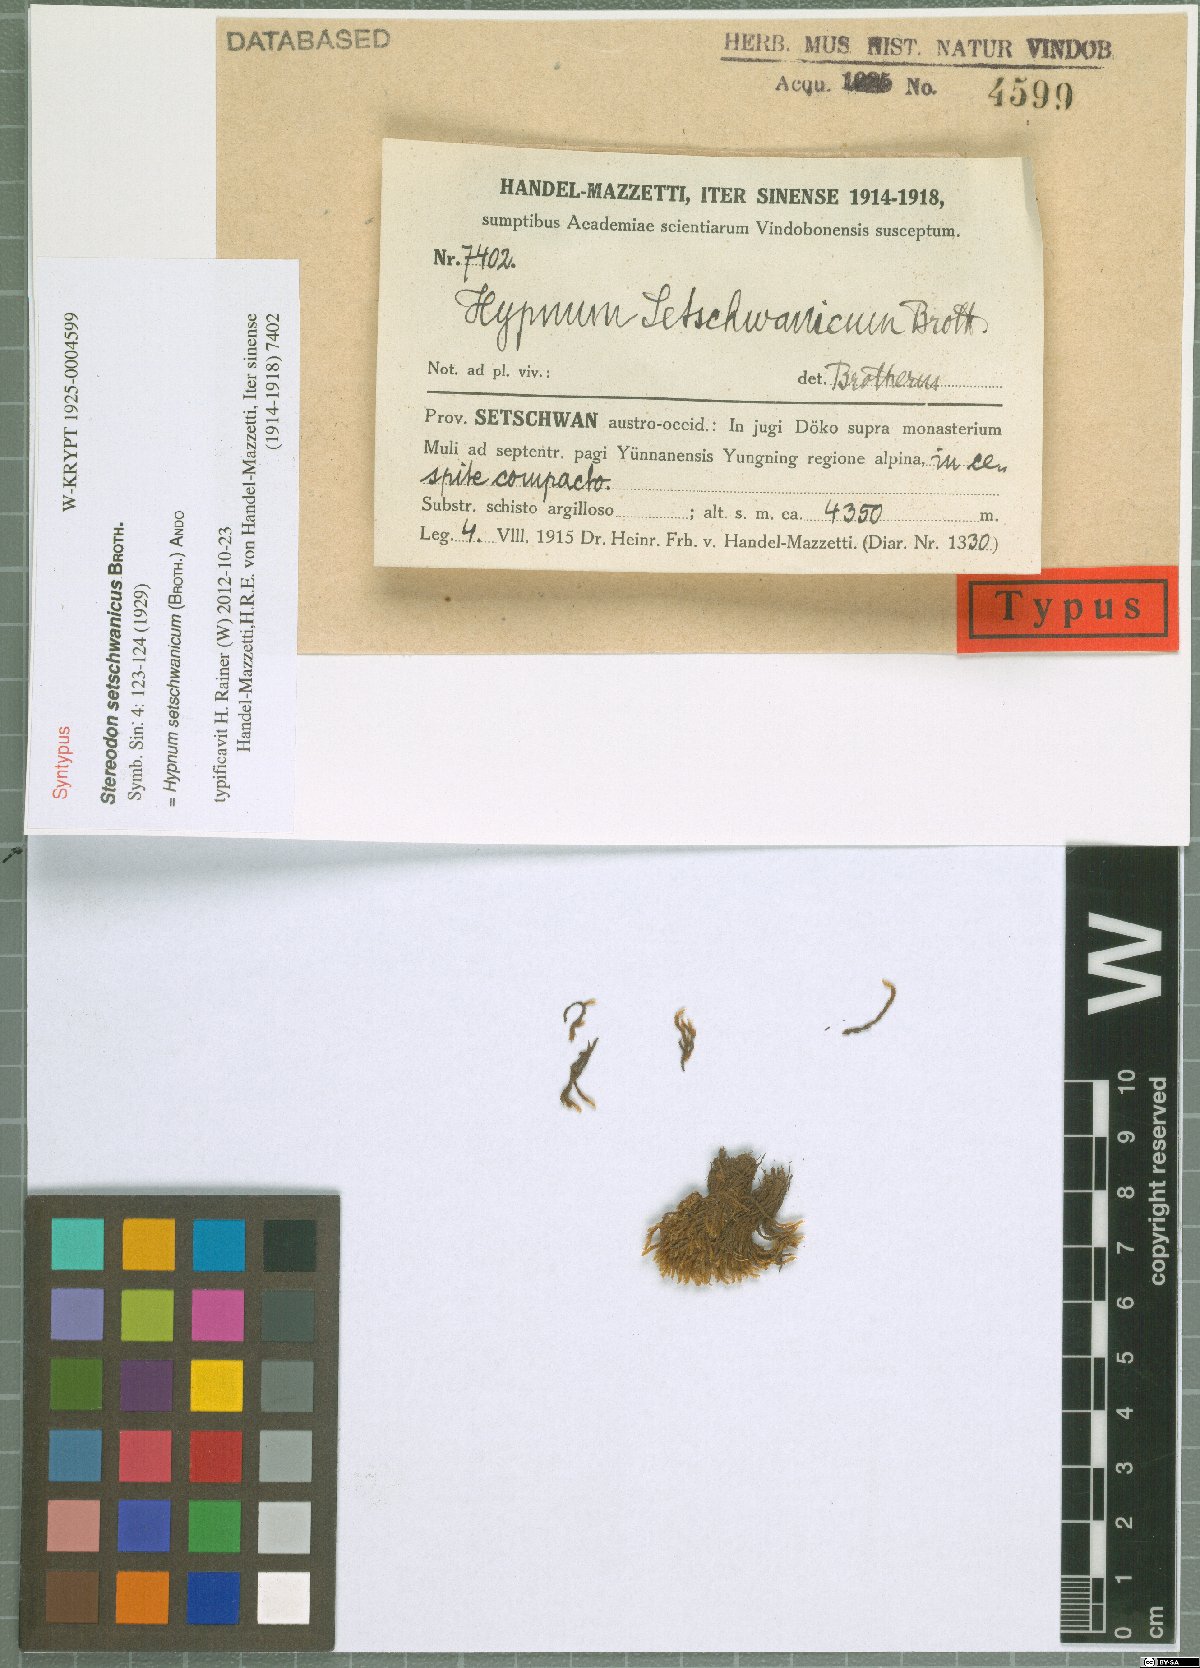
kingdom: Plantae
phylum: Bryophyta
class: Bryopsida
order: Hypnales
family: Hypnaceae
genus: Hypnum
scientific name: Hypnum setschwanicum
